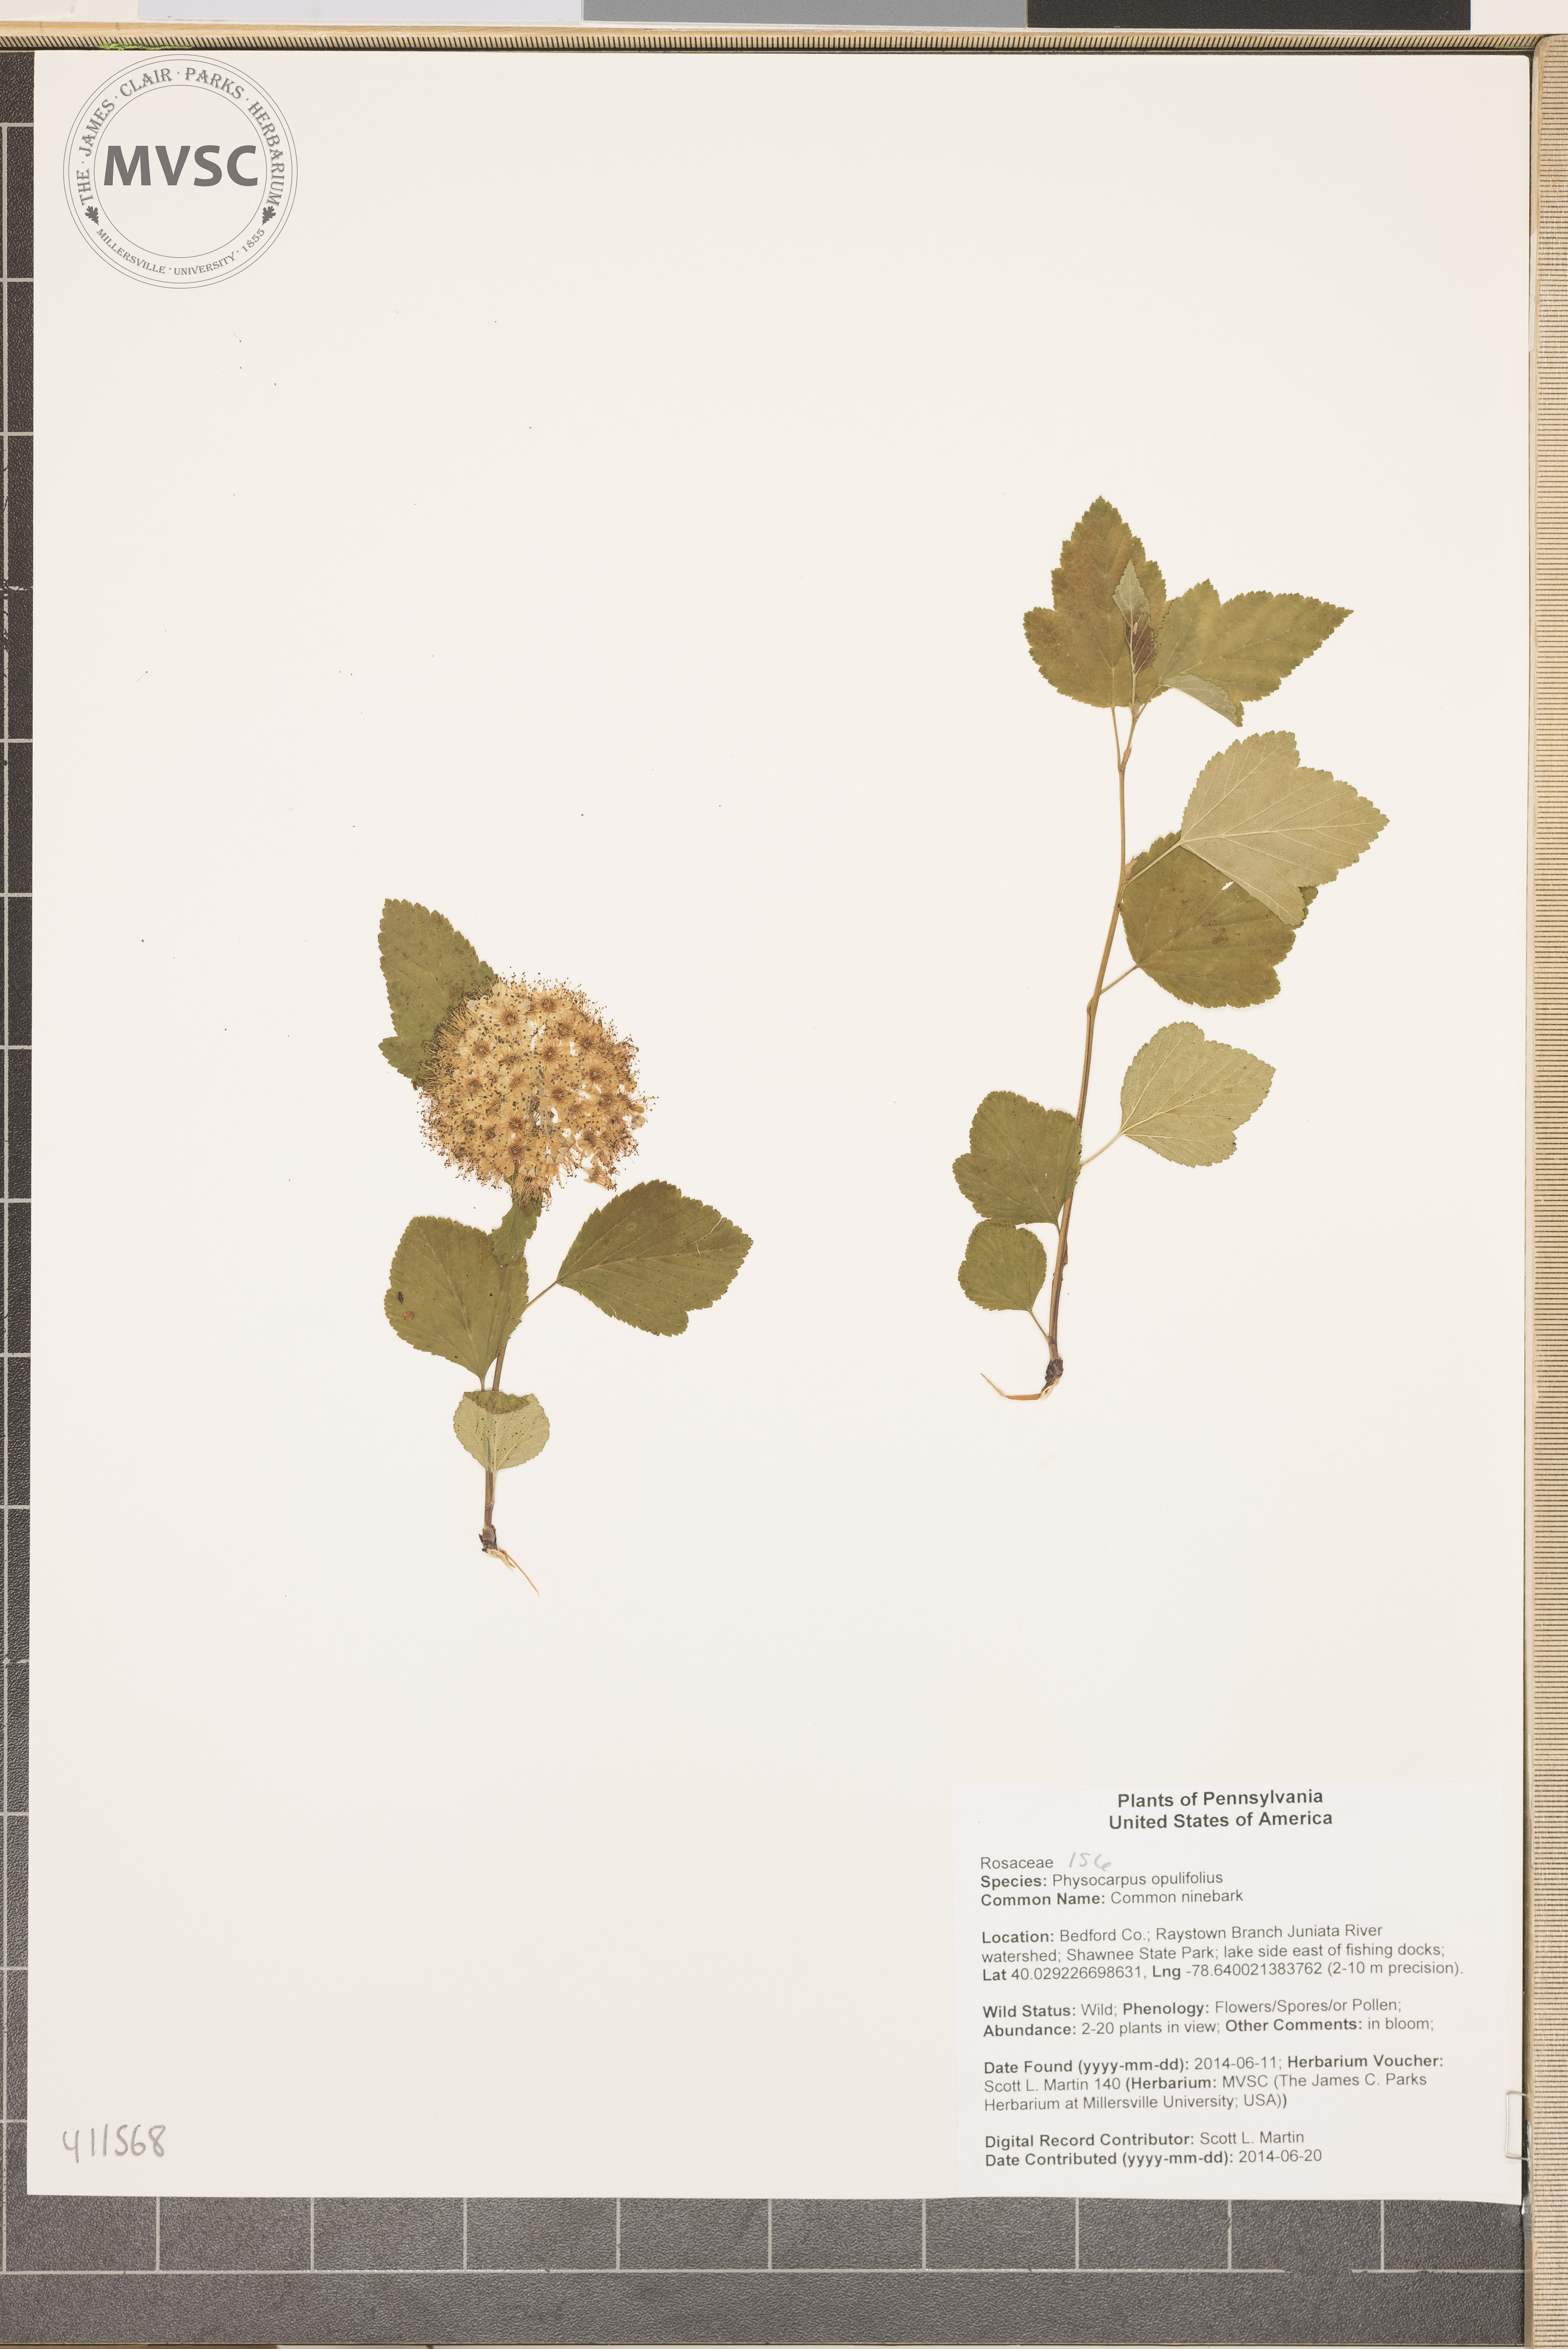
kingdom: Plantae
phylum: Tracheophyta
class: Magnoliopsida
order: Rosales
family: Rosaceae
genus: Physocarpus
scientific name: Physocarpus opulifolius
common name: Common ninebark
